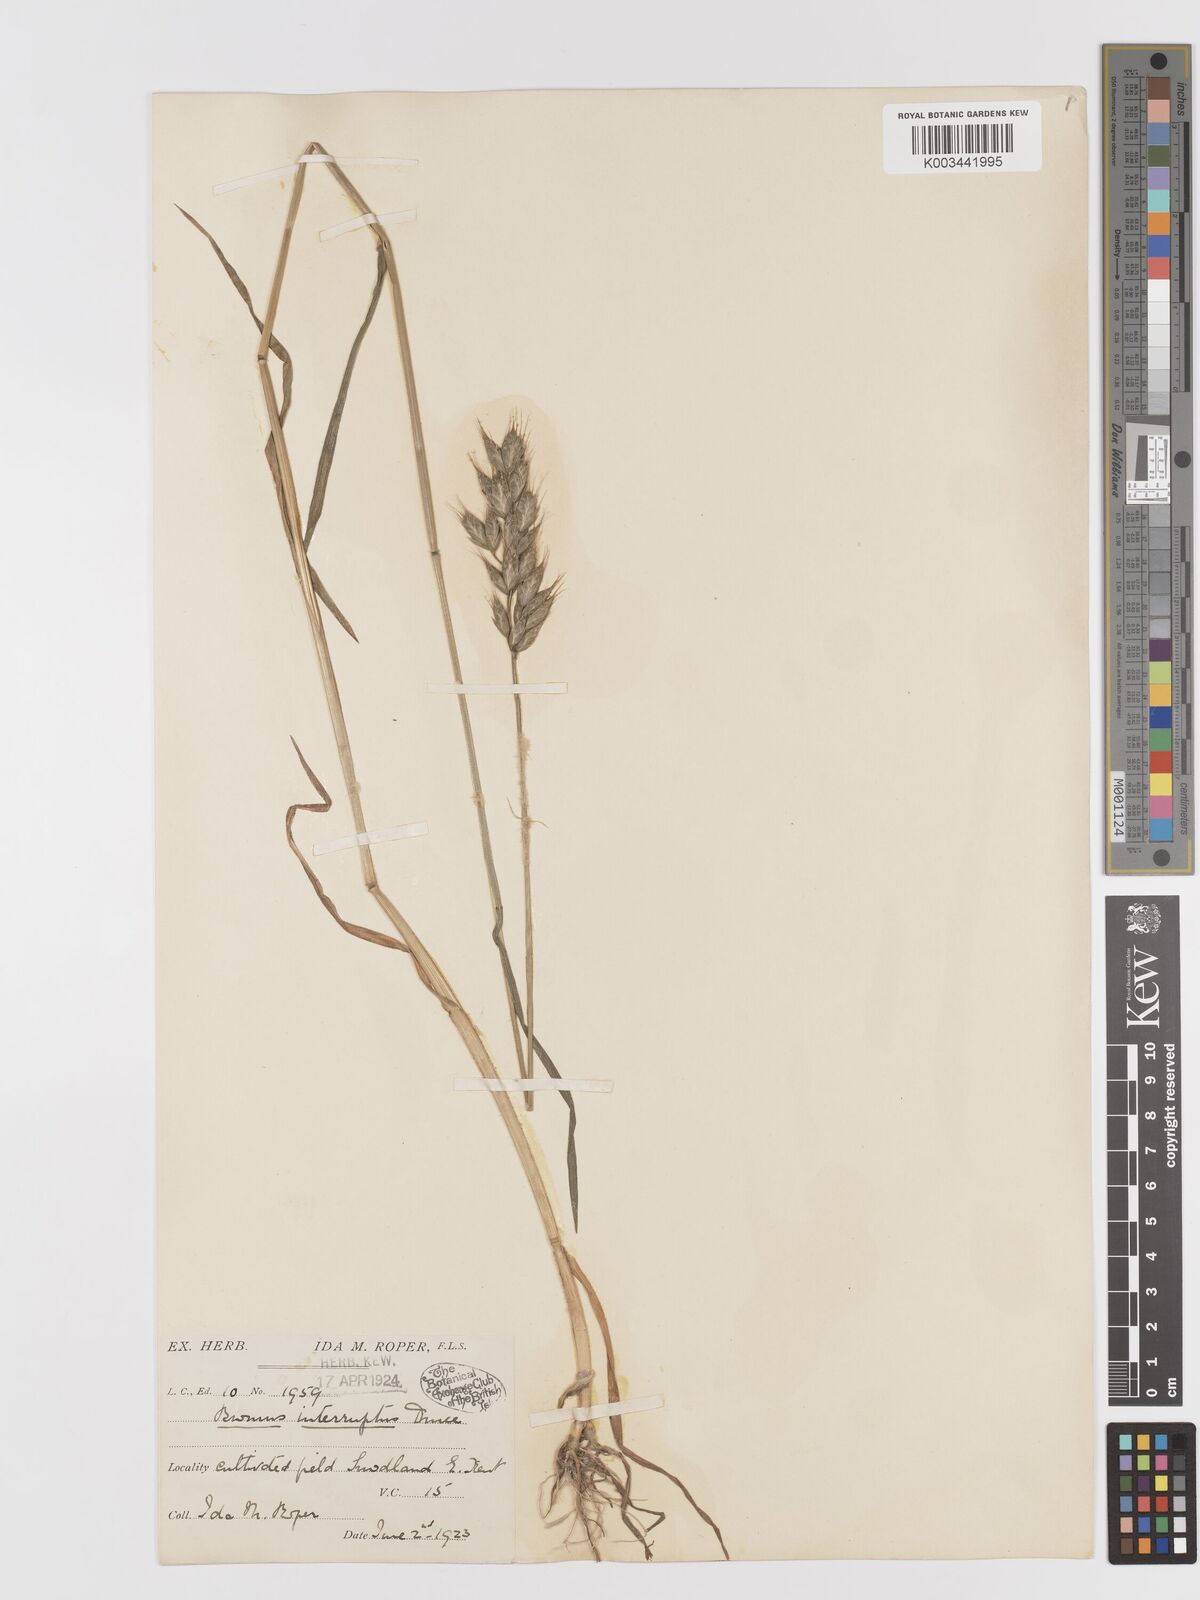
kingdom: Plantae
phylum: Tracheophyta
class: Liliopsida
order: Poales
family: Poaceae
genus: Bromus
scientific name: Bromus interruptus
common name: Interrupted brome
